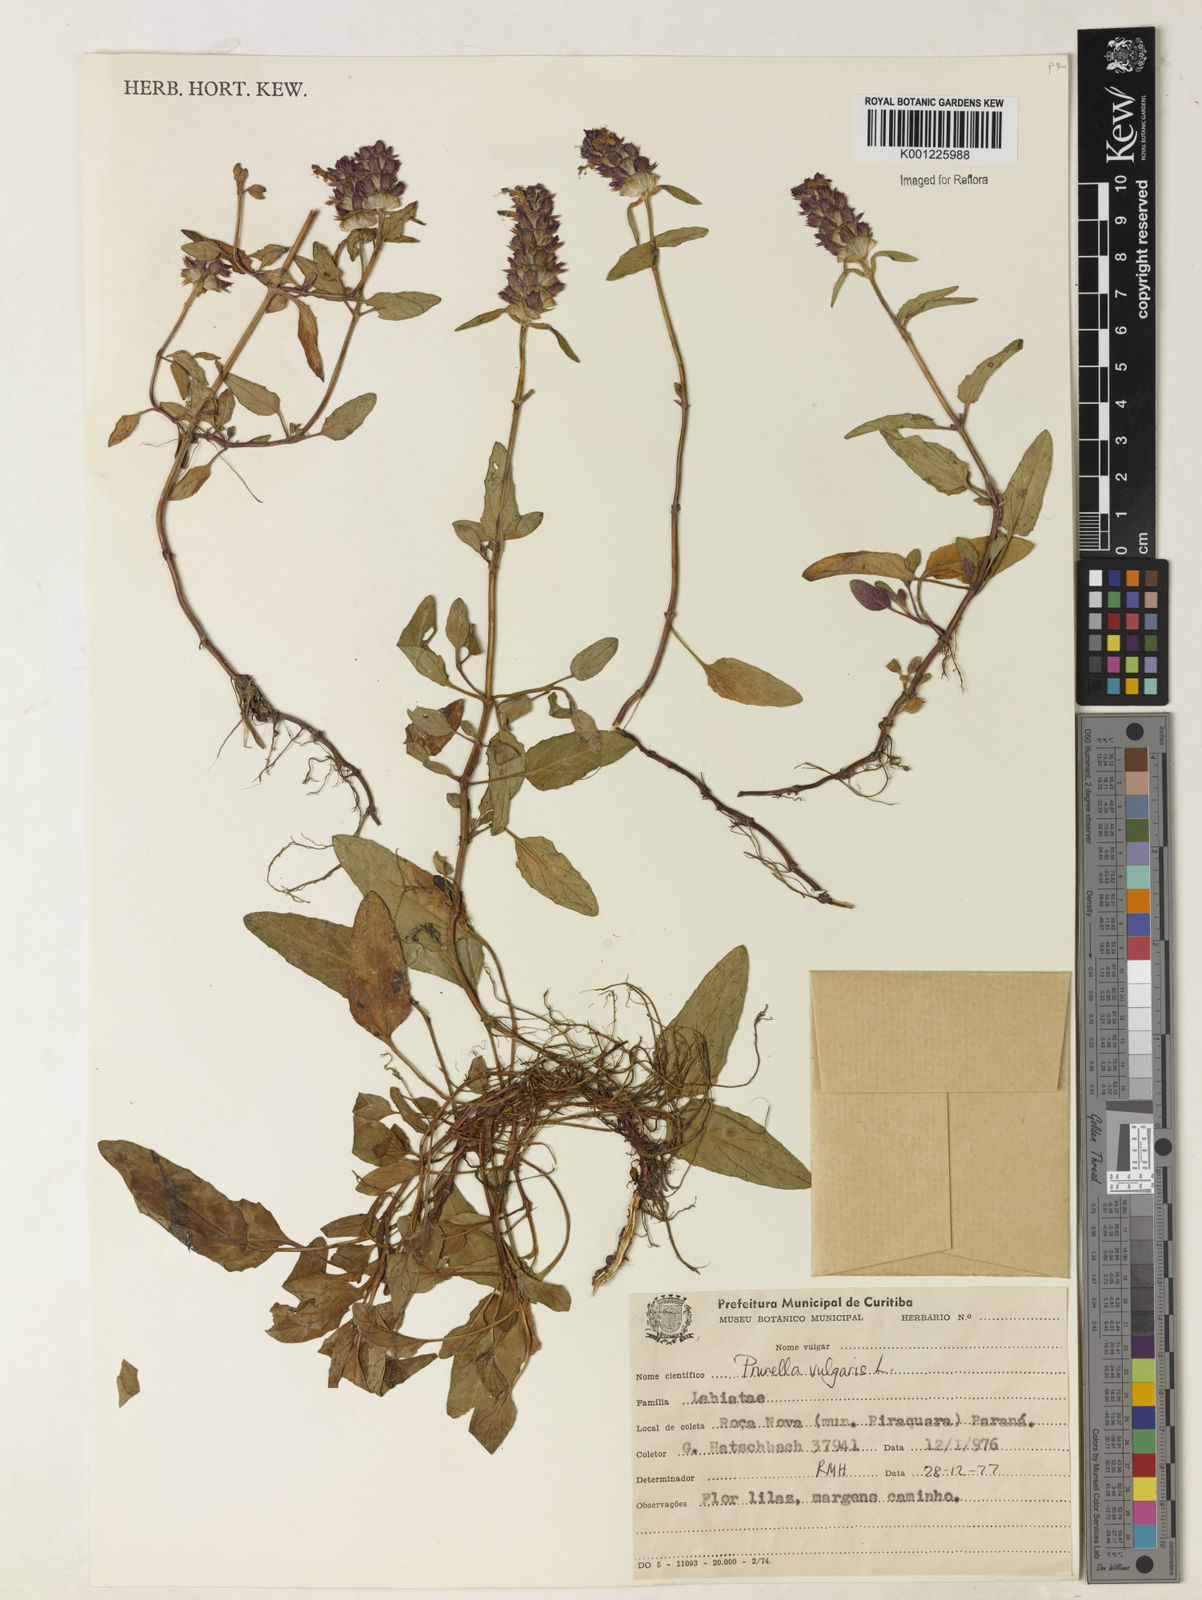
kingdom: Plantae
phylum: Tracheophyta
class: Magnoliopsida
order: Lamiales
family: Lamiaceae
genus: Prunella
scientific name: Prunella vulgaris
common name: Heal-all
